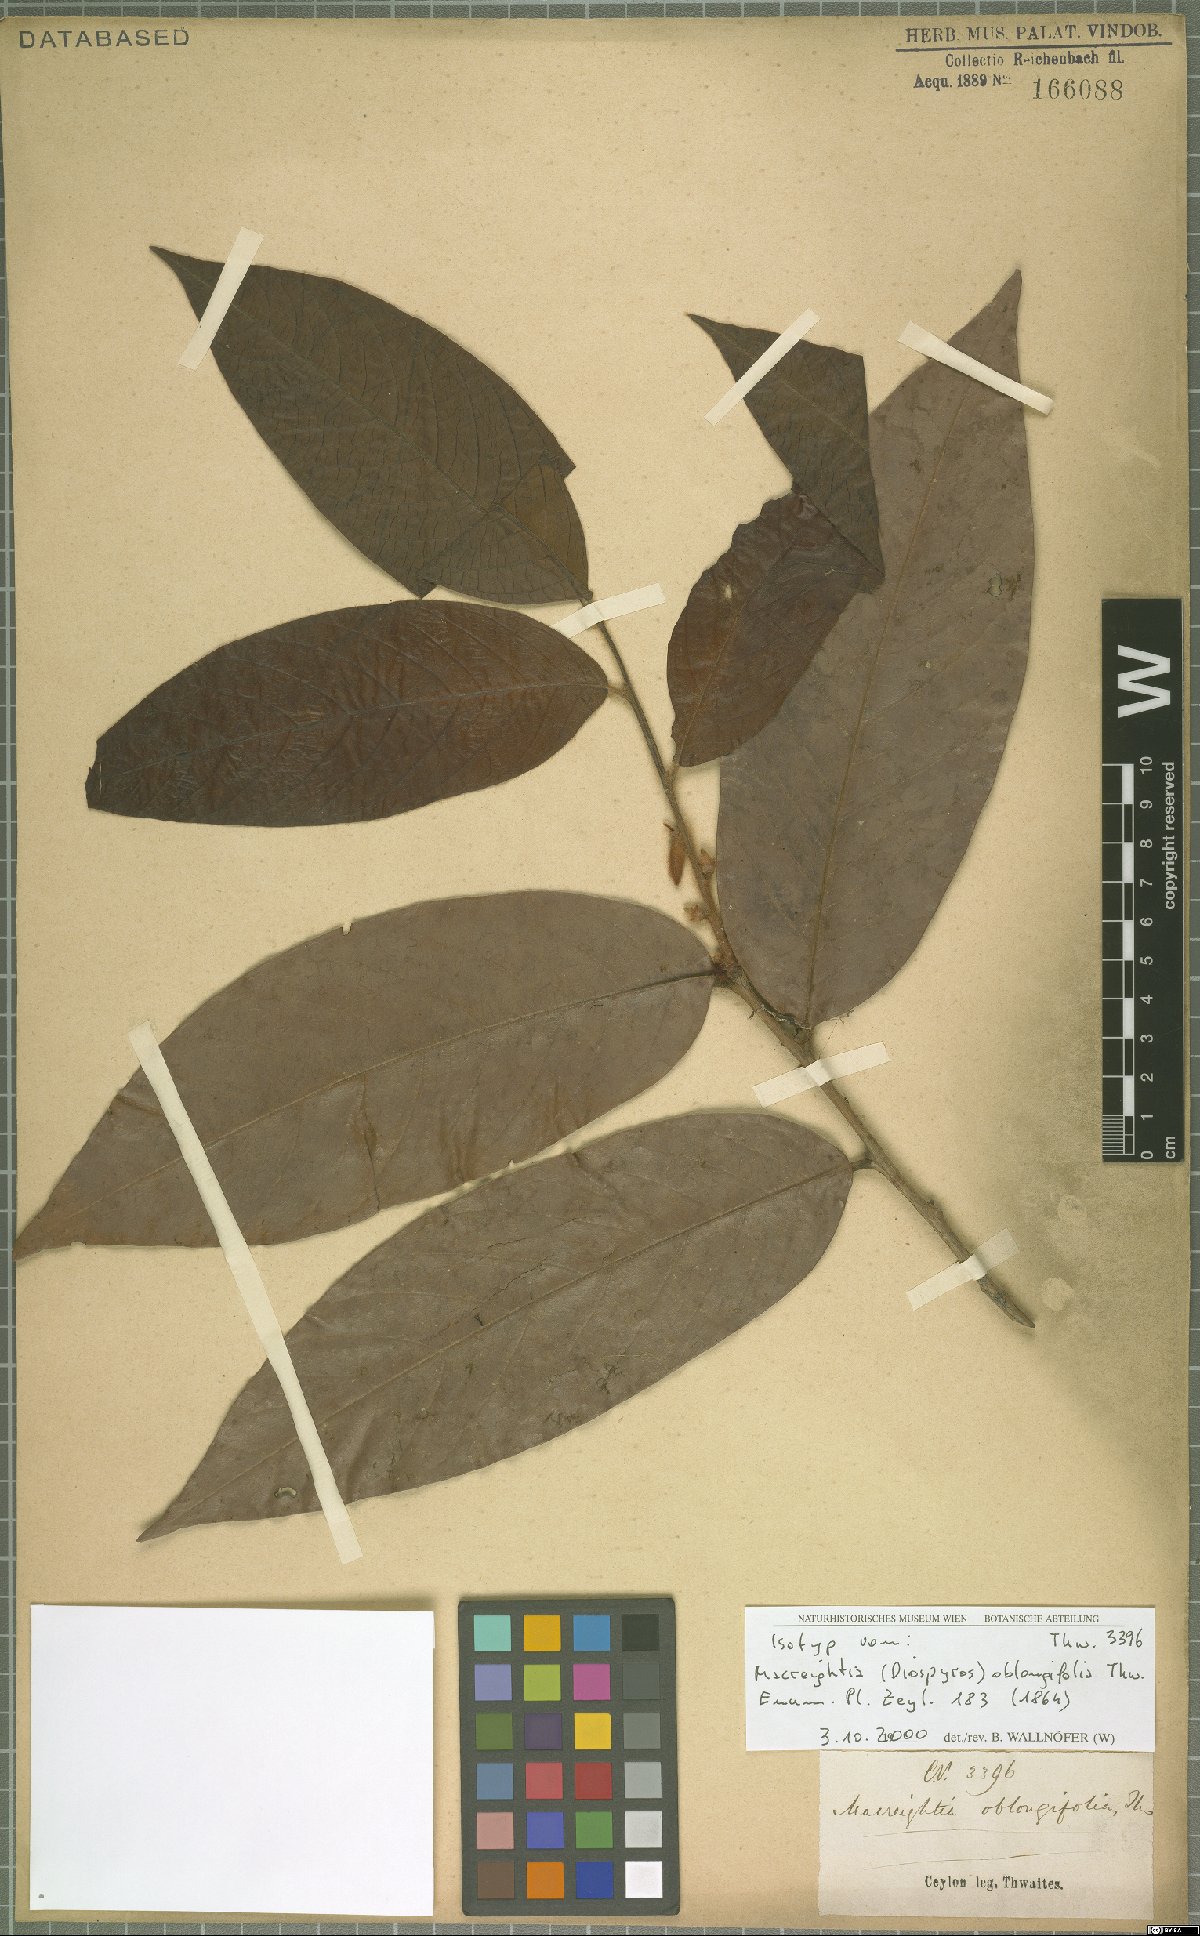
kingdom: Plantae
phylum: Tracheophyta
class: Magnoliopsida
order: Ericales
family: Ebenaceae
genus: Diospyros
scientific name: Diospyros srilankana
